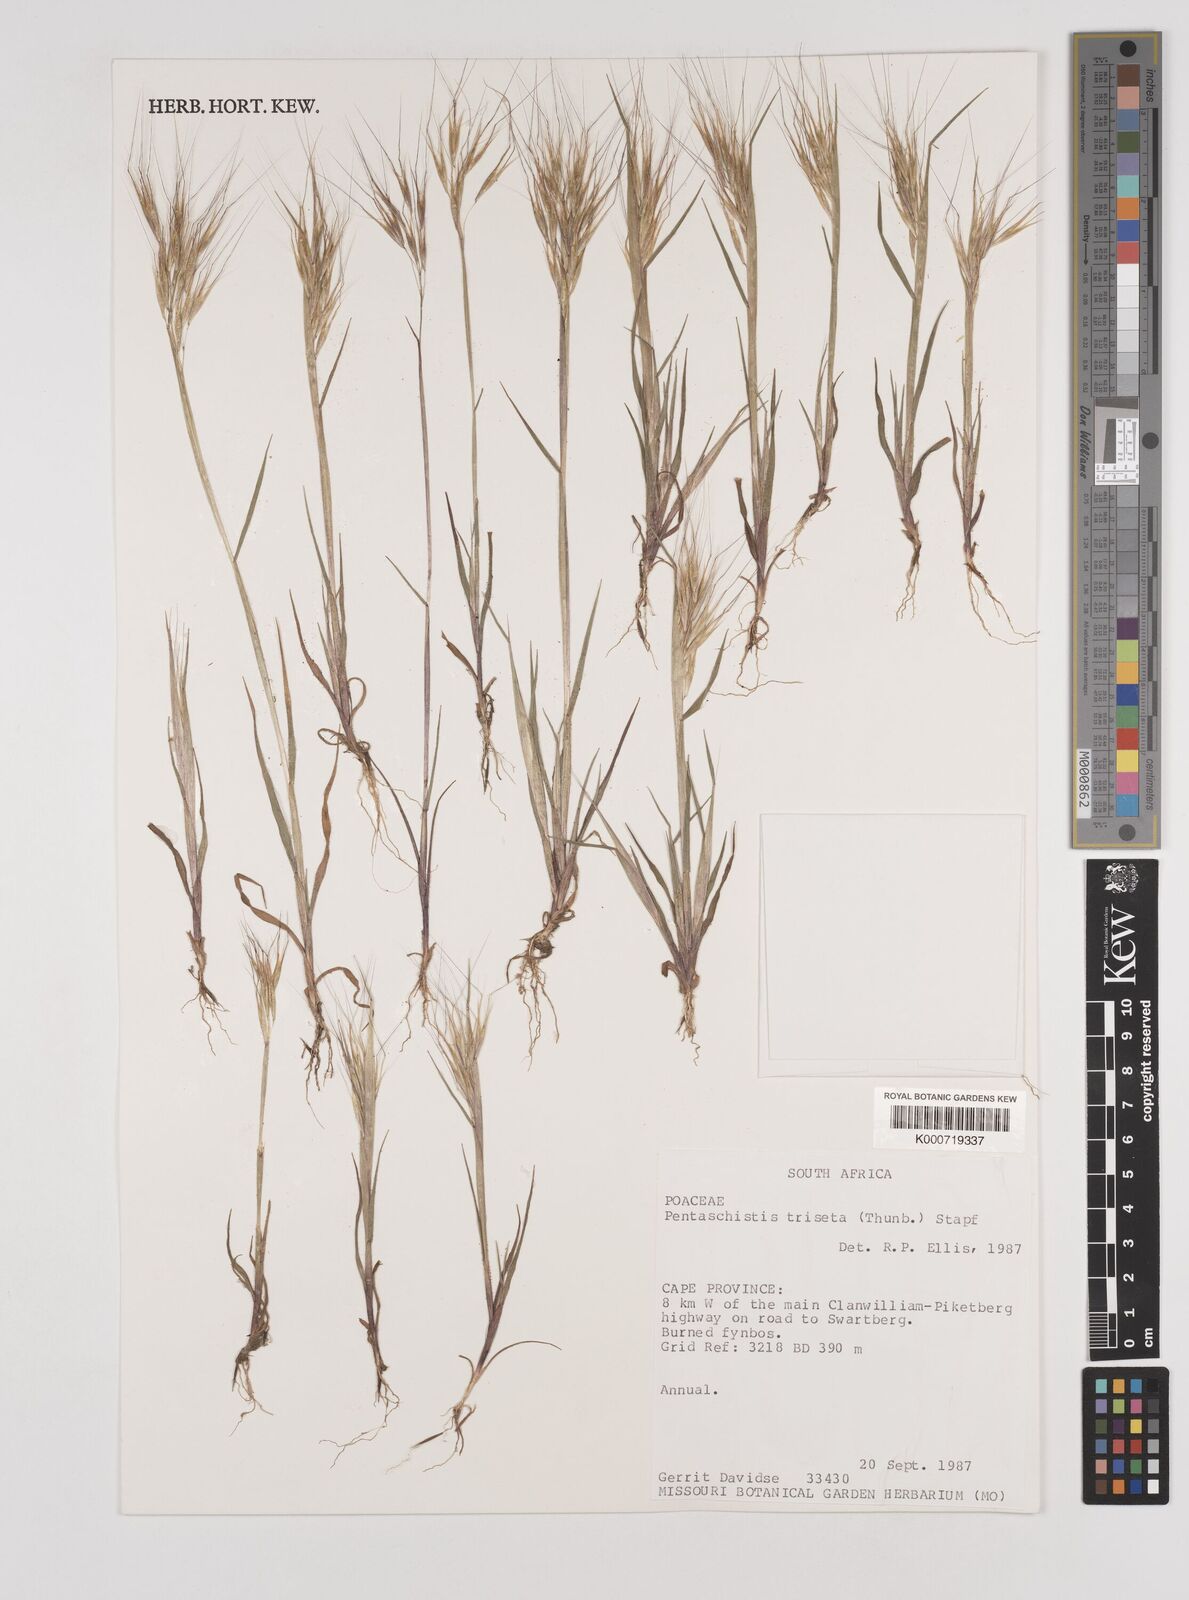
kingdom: Plantae
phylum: Tracheophyta
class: Liliopsida
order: Poales
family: Poaceae
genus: Pentameris
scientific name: Pentameris triseta
